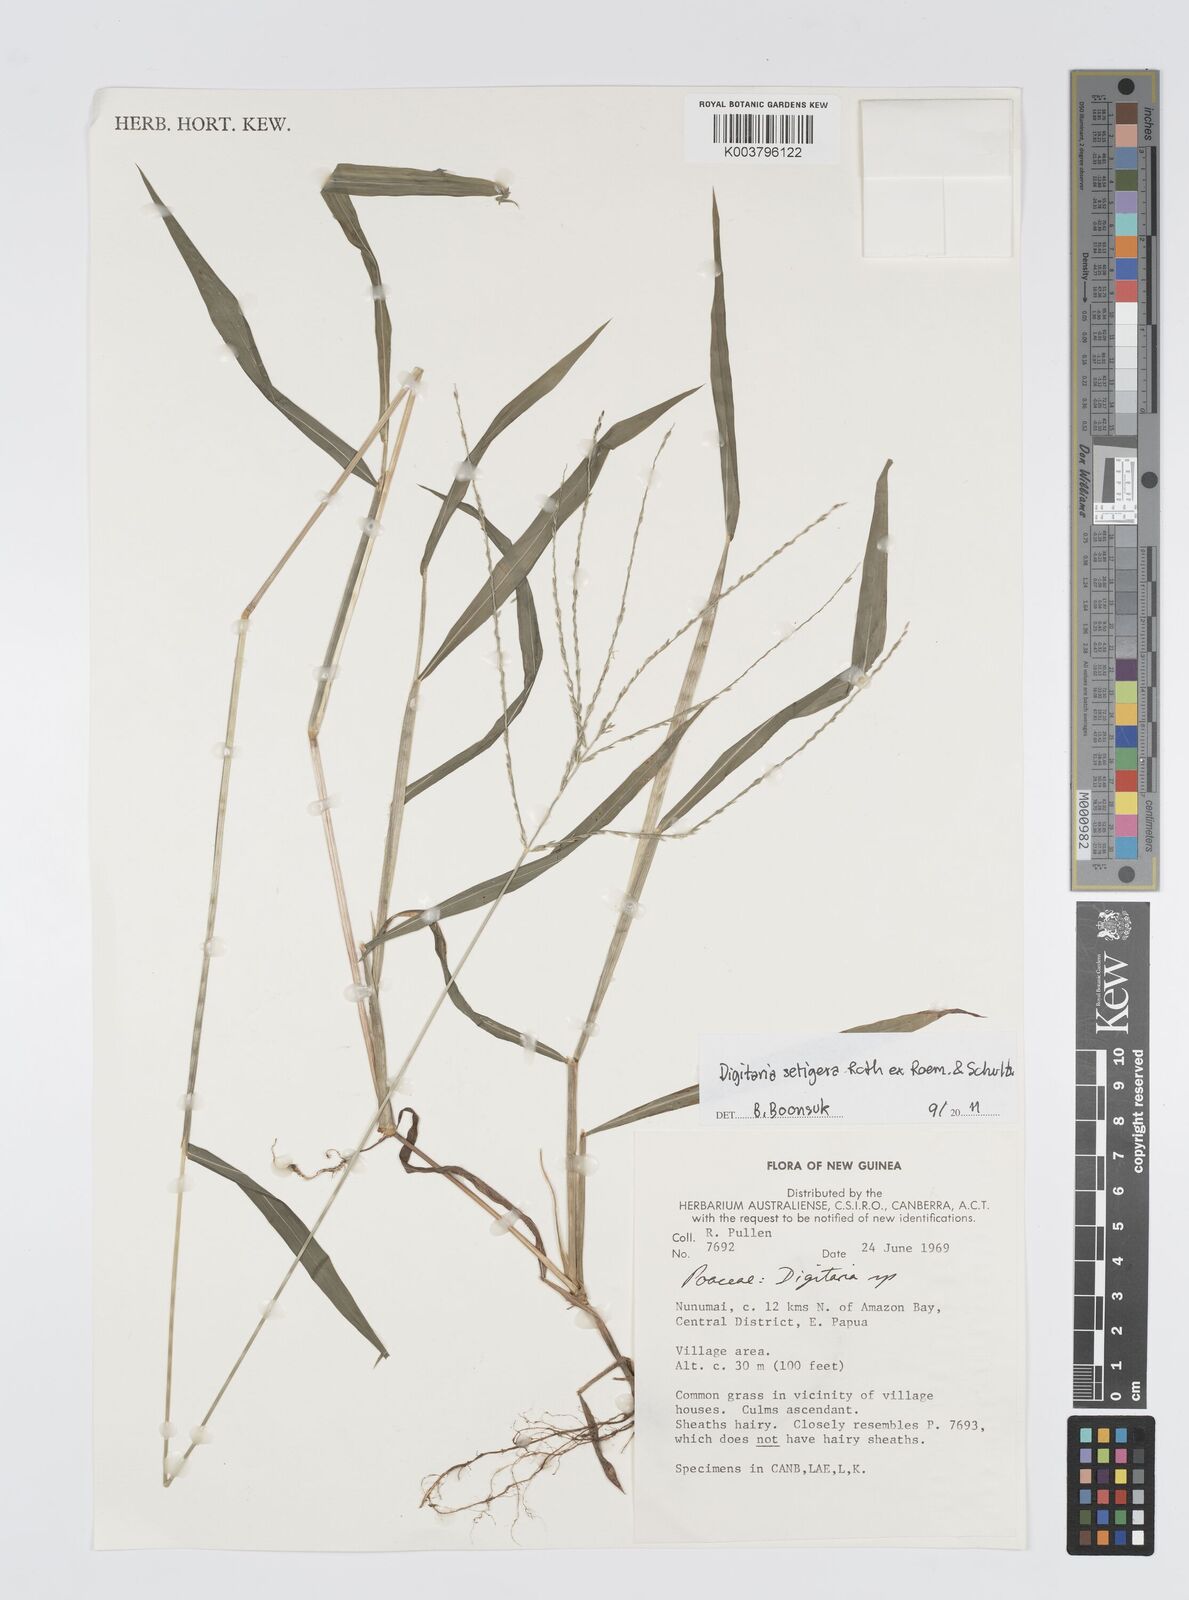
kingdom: Plantae
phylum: Tracheophyta
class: Liliopsida
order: Poales
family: Poaceae
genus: Digitaria
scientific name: Digitaria setigera
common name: East indian crabgrass
